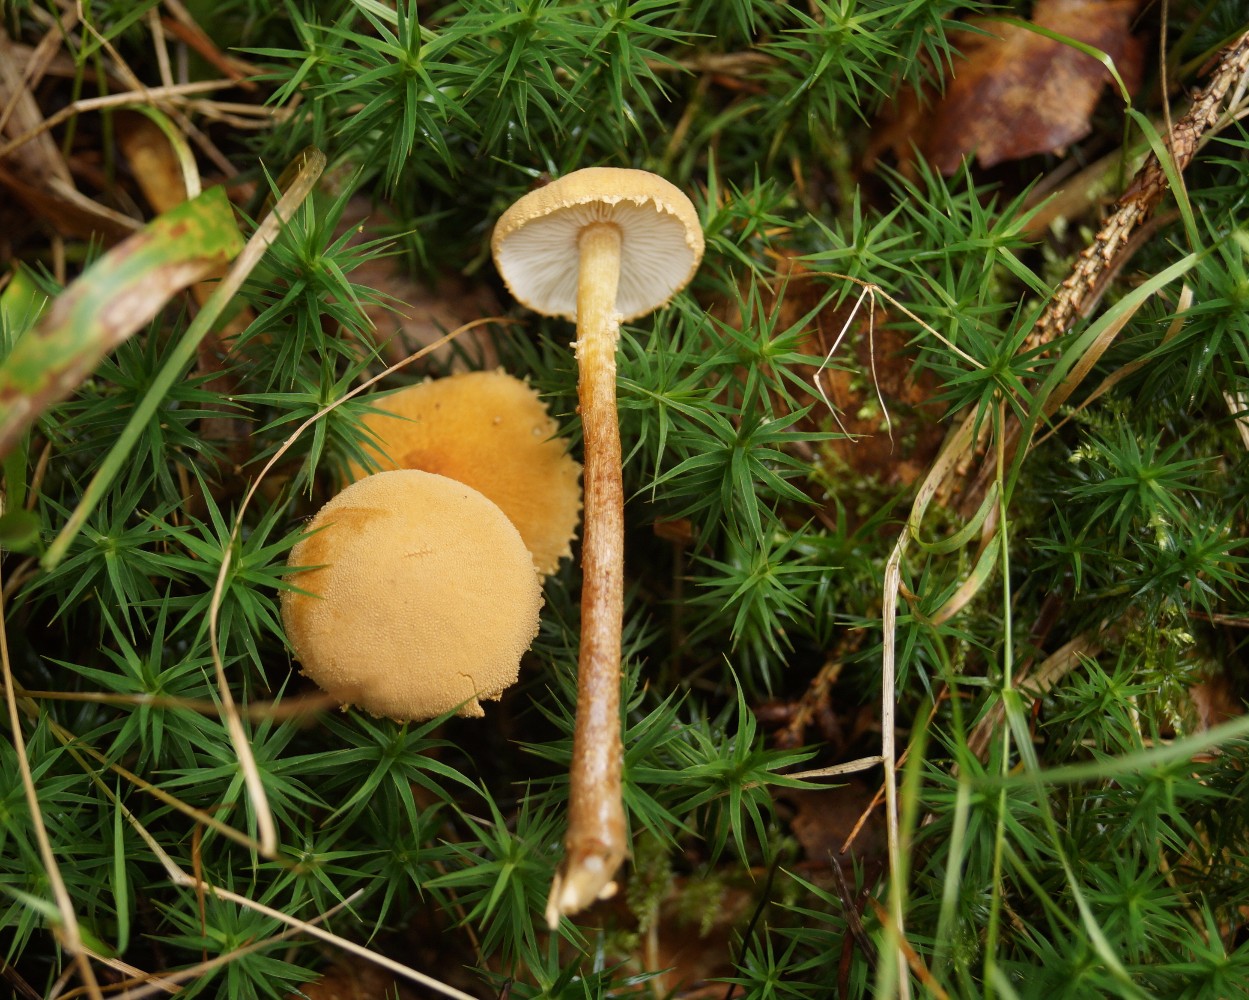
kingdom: Fungi
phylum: Basidiomycota
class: Agaricomycetes
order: Agaricales
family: Tricholomataceae
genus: Cystoderma
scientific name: Cystoderma amianthinum
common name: okkergul grynhat
